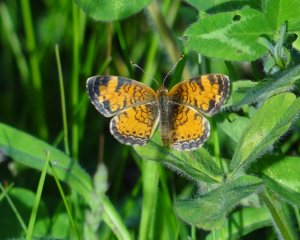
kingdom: Animalia
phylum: Arthropoda
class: Insecta
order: Lepidoptera
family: Nymphalidae
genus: Phyciodes
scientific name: Phyciodes tharos
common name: Pearl Crescent
